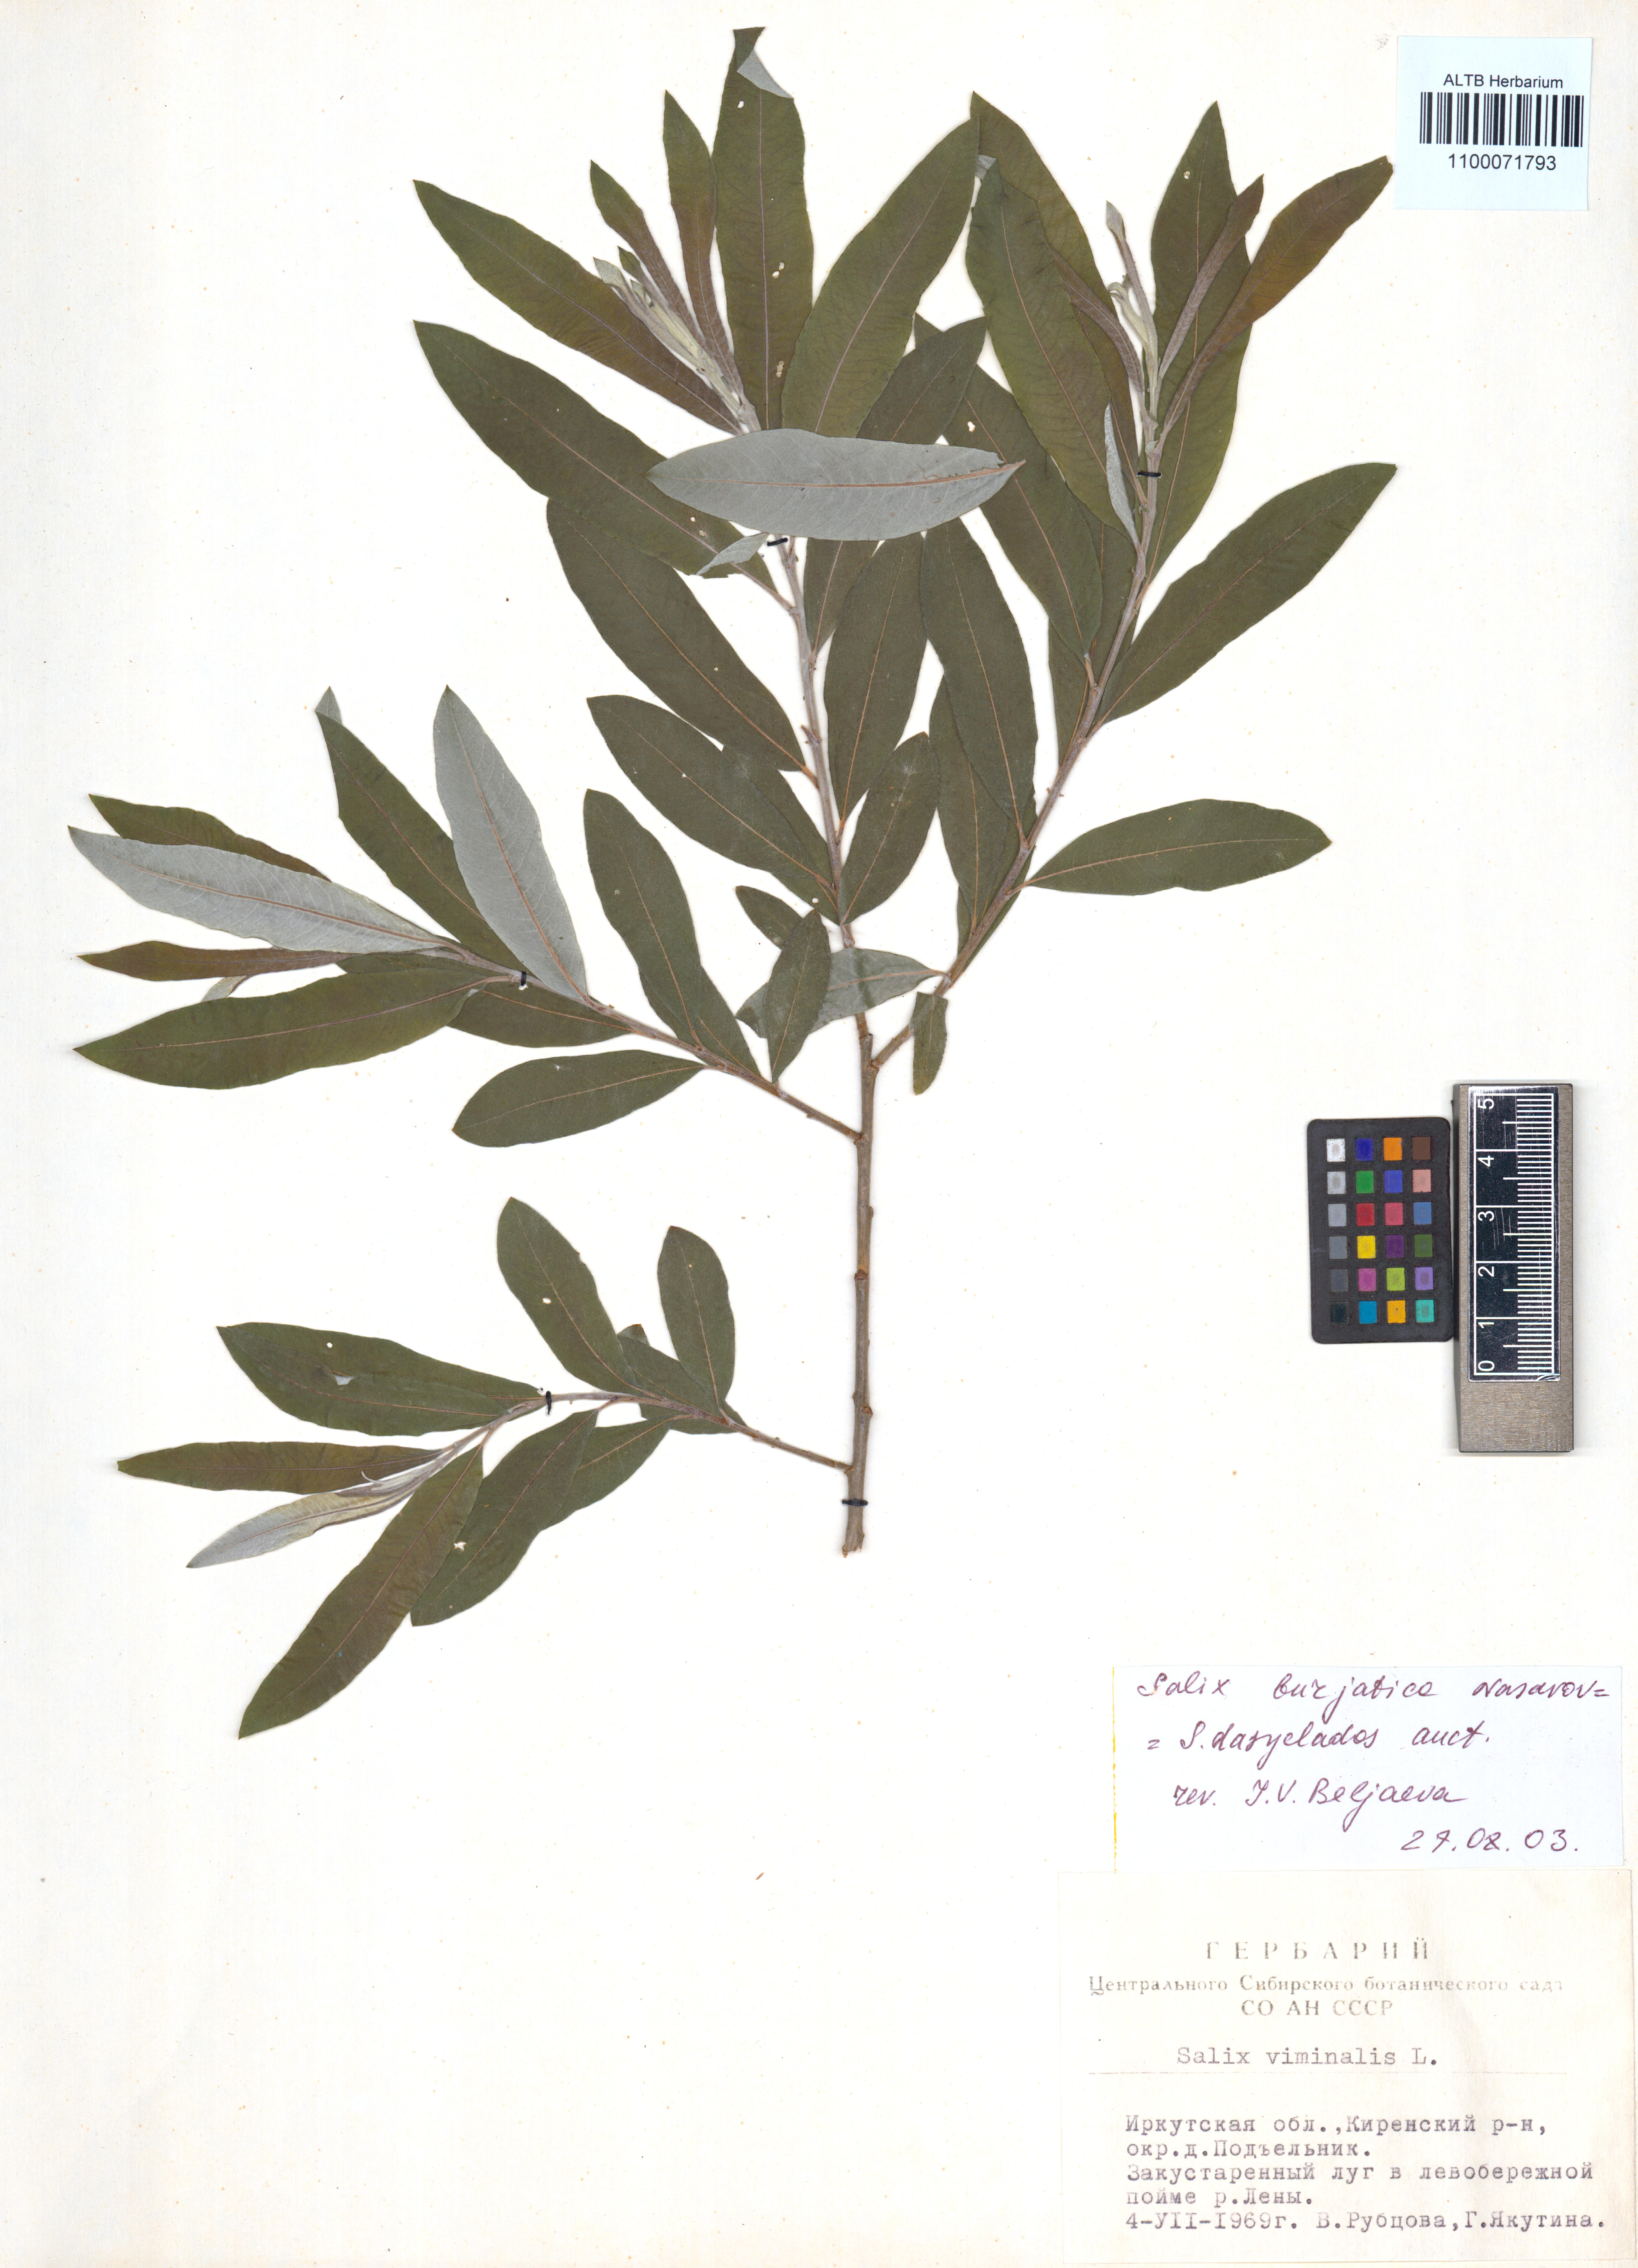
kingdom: Plantae
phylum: Tracheophyta
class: Magnoliopsida
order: Malpighiales
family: Salicaceae
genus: Salix
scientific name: Salix gmelinii
